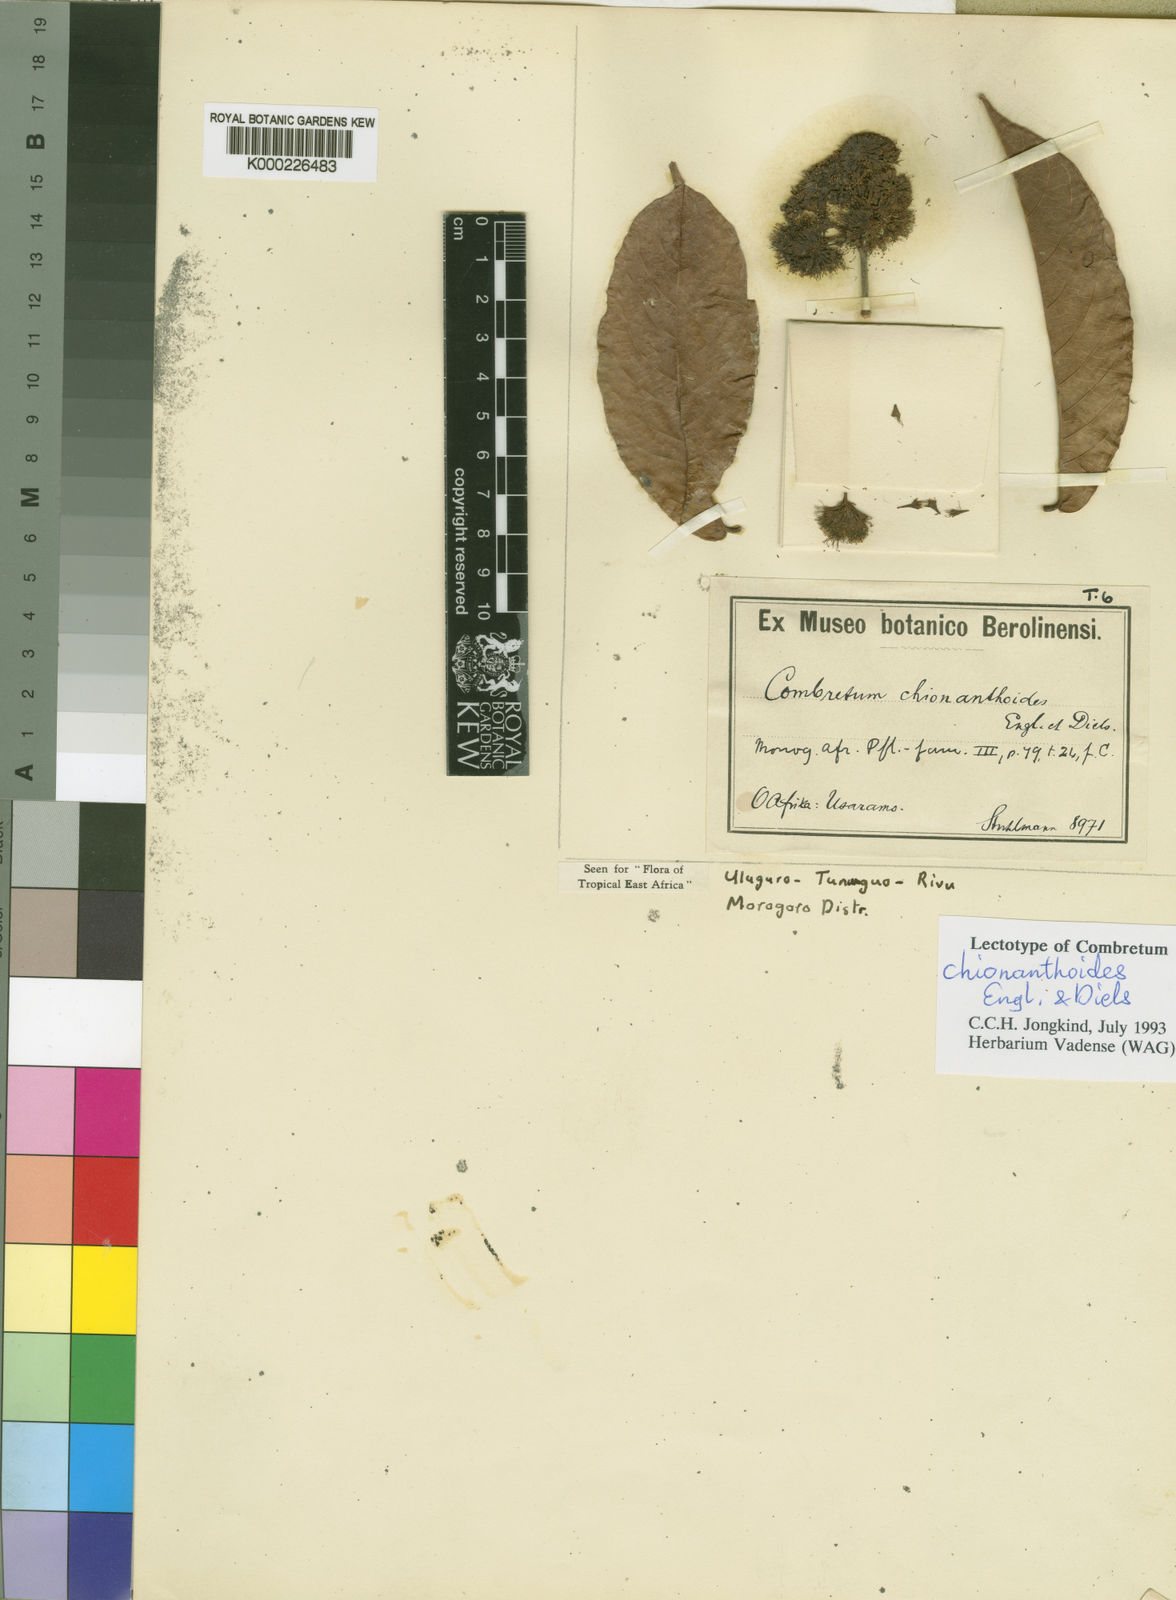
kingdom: Plantae
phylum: Tracheophyta
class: Magnoliopsida
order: Myrtales
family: Combretaceae
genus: Combretum
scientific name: Combretum exalatum
